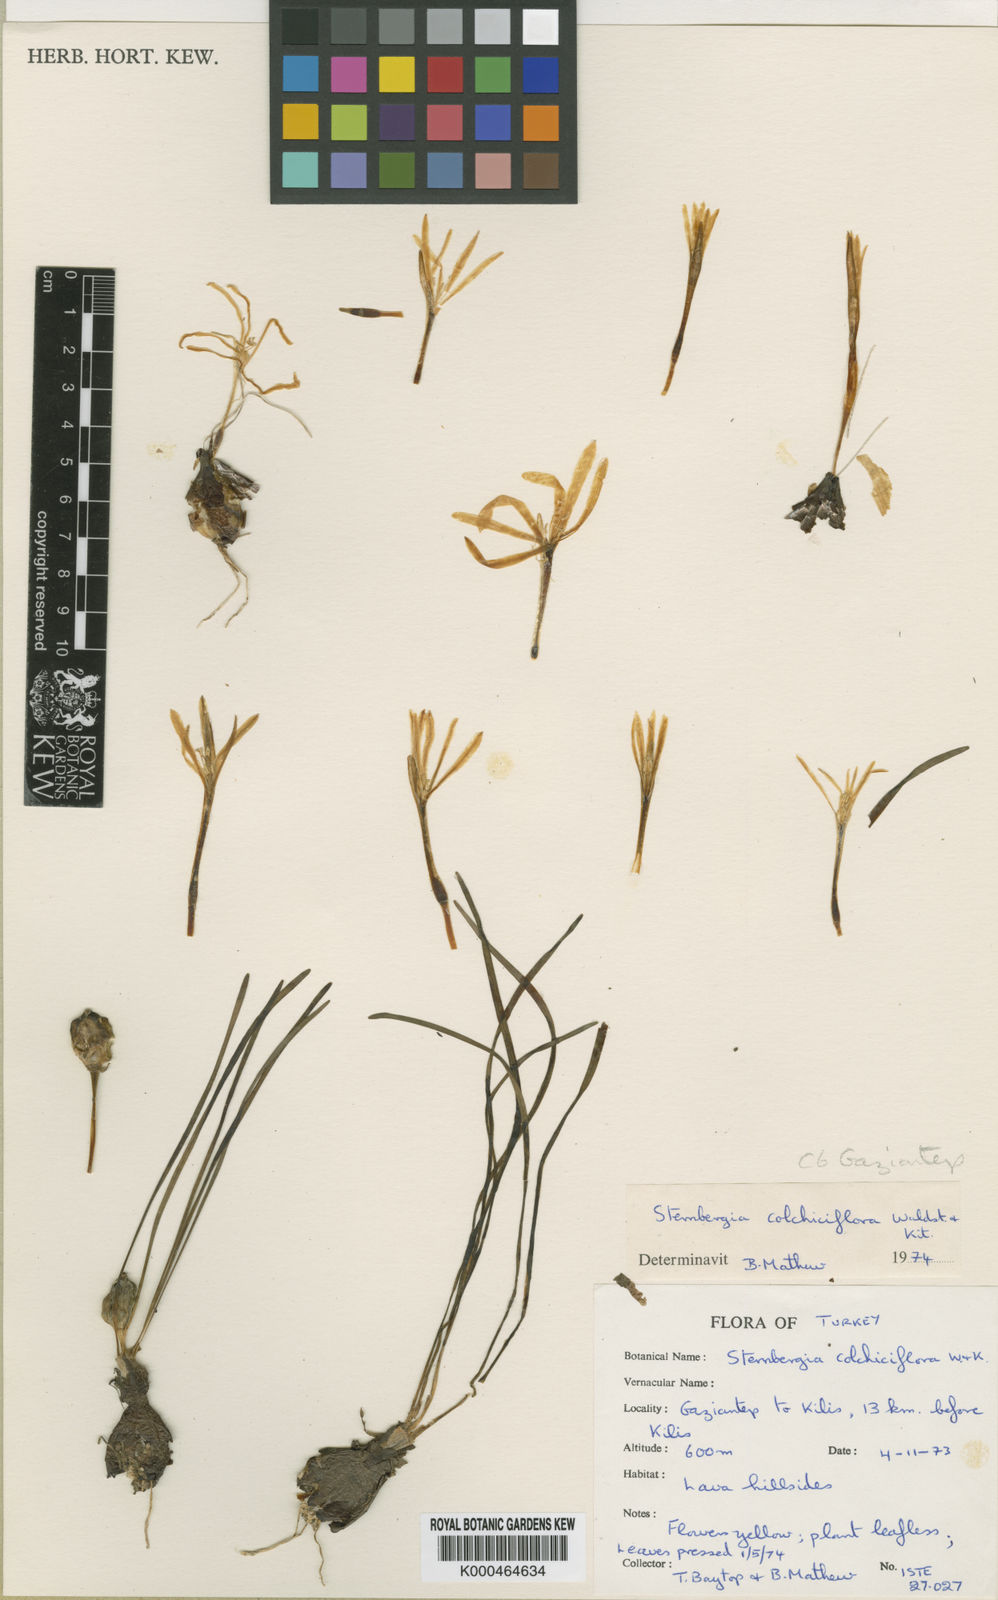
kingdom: Plantae
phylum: Tracheophyta
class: Liliopsida
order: Asparagales
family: Amaryllidaceae
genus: Sternbergia
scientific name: Sternbergia colchiciflora
